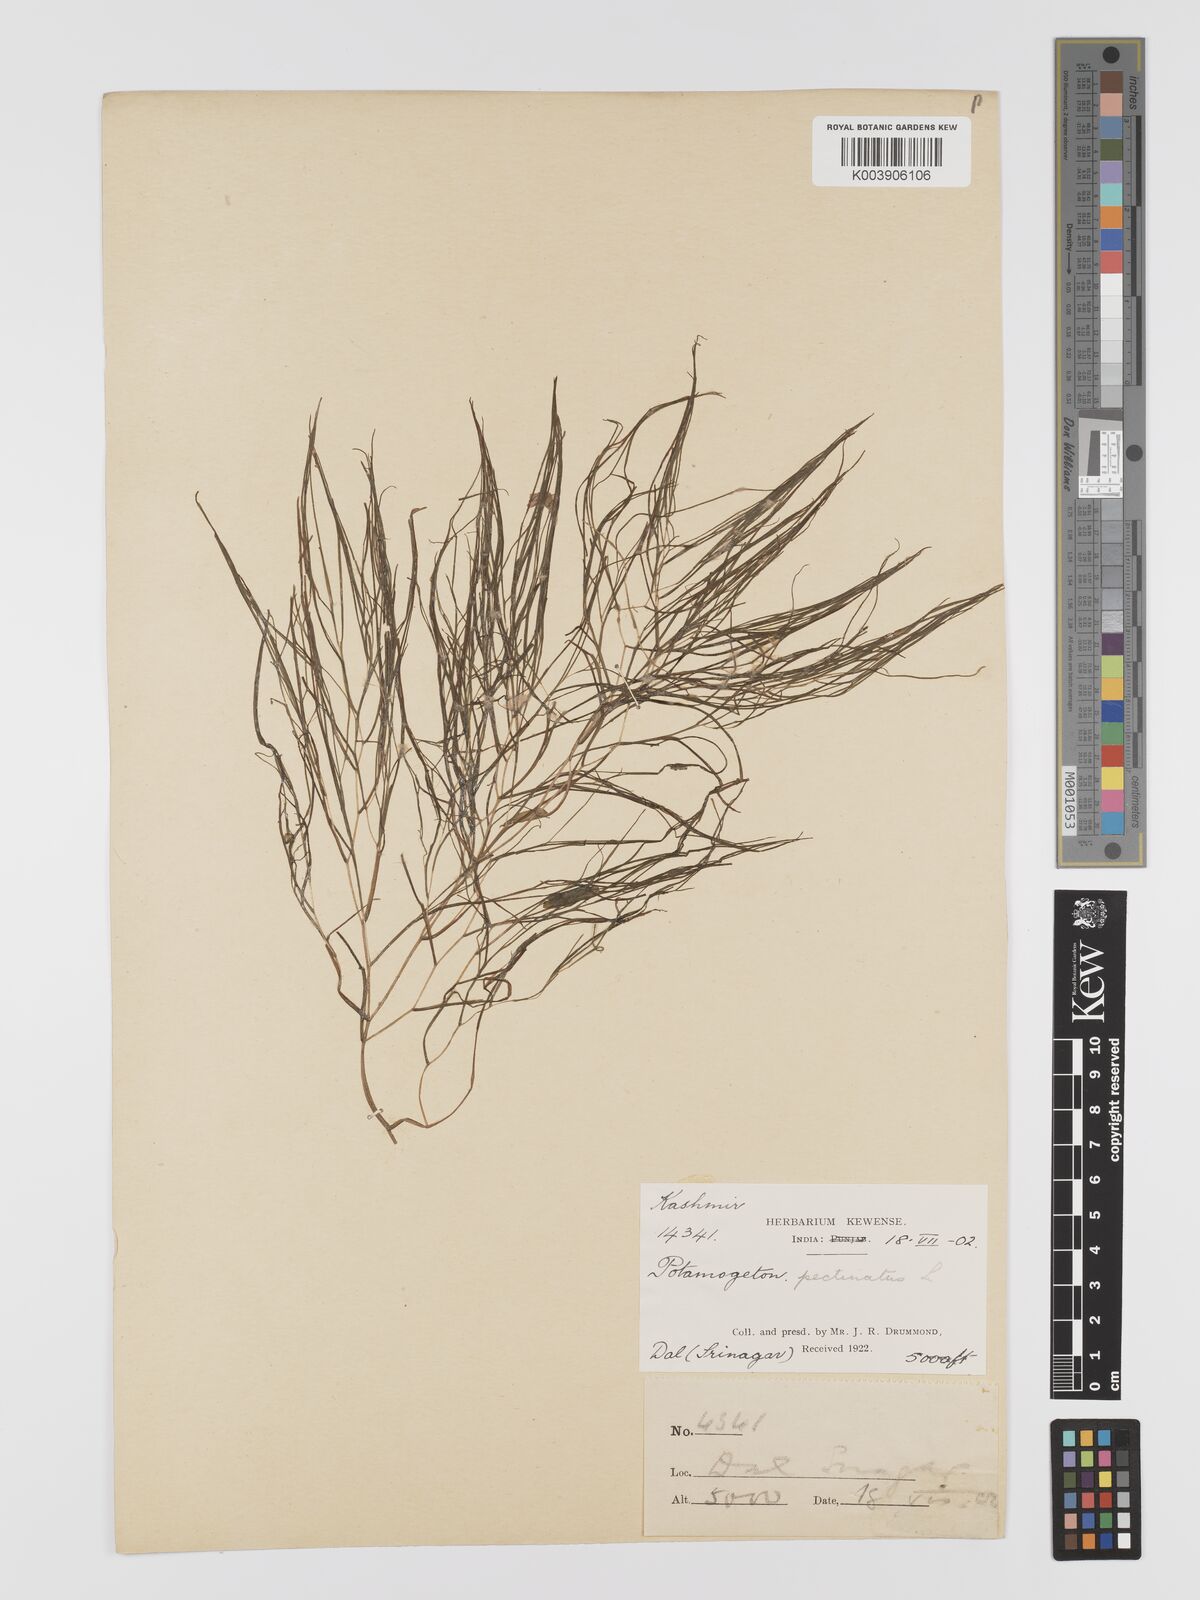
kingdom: Plantae
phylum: Tracheophyta
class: Liliopsida
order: Alismatales
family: Potamogetonaceae
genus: Stuckenia
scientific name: Stuckenia pectinata
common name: Sago pondweed
